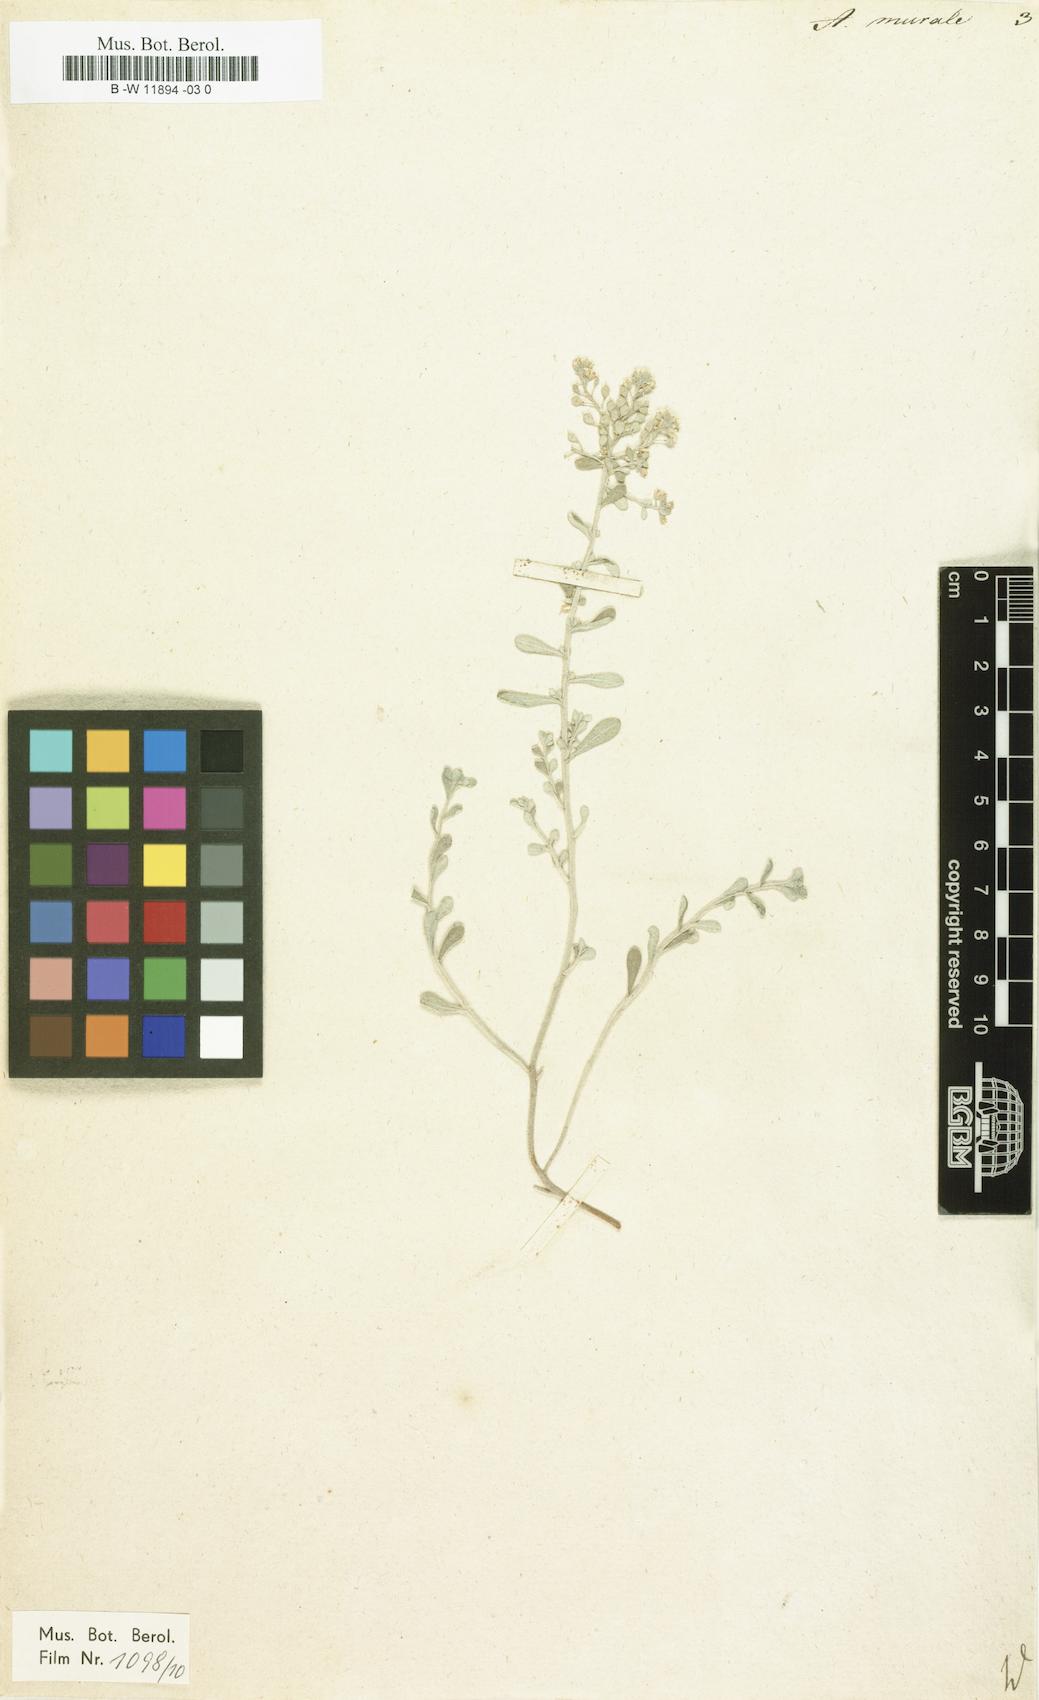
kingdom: Plantae
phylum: Tracheophyta
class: Magnoliopsida
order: Brassicales
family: Brassicaceae
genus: Odontarrhena
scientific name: Odontarrhena muralis
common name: Rock alyssum
